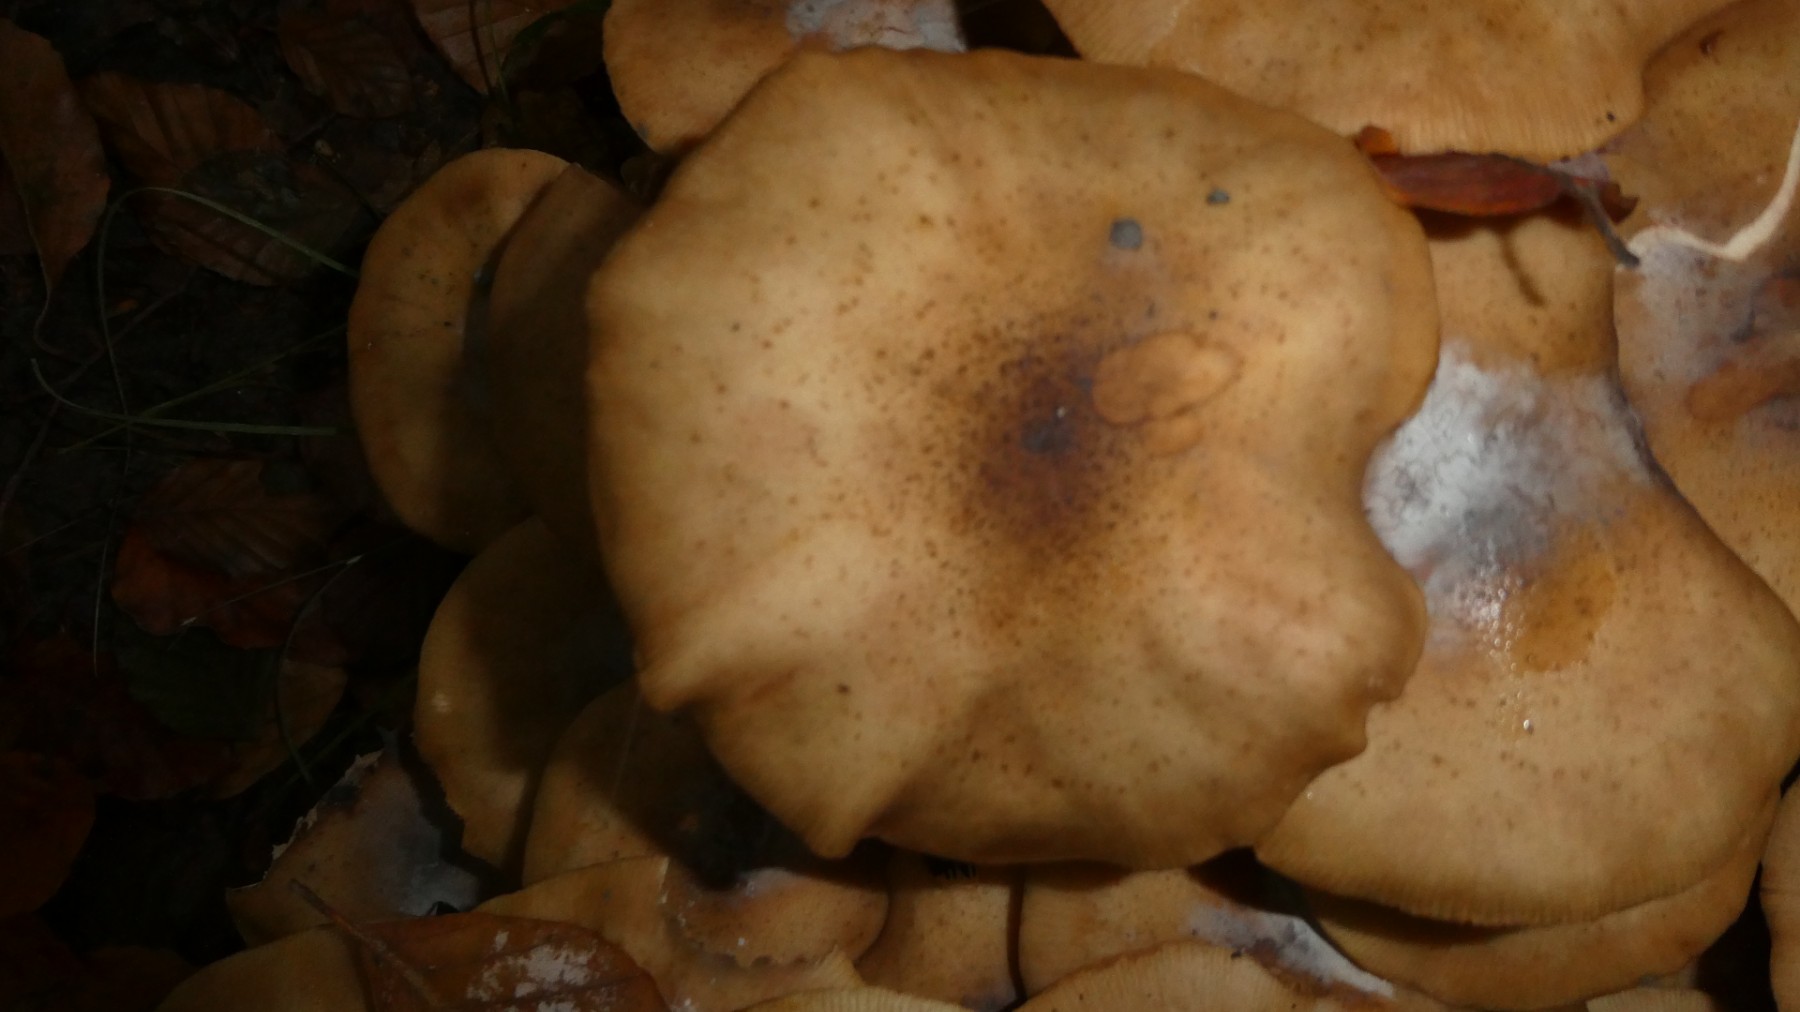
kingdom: Fungi
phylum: Basidiomycota
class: Agaricomycetes
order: Agaricales
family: Physalacriaceae
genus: Armillaria
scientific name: Armillaria mellea
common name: ægte honningsvamp
